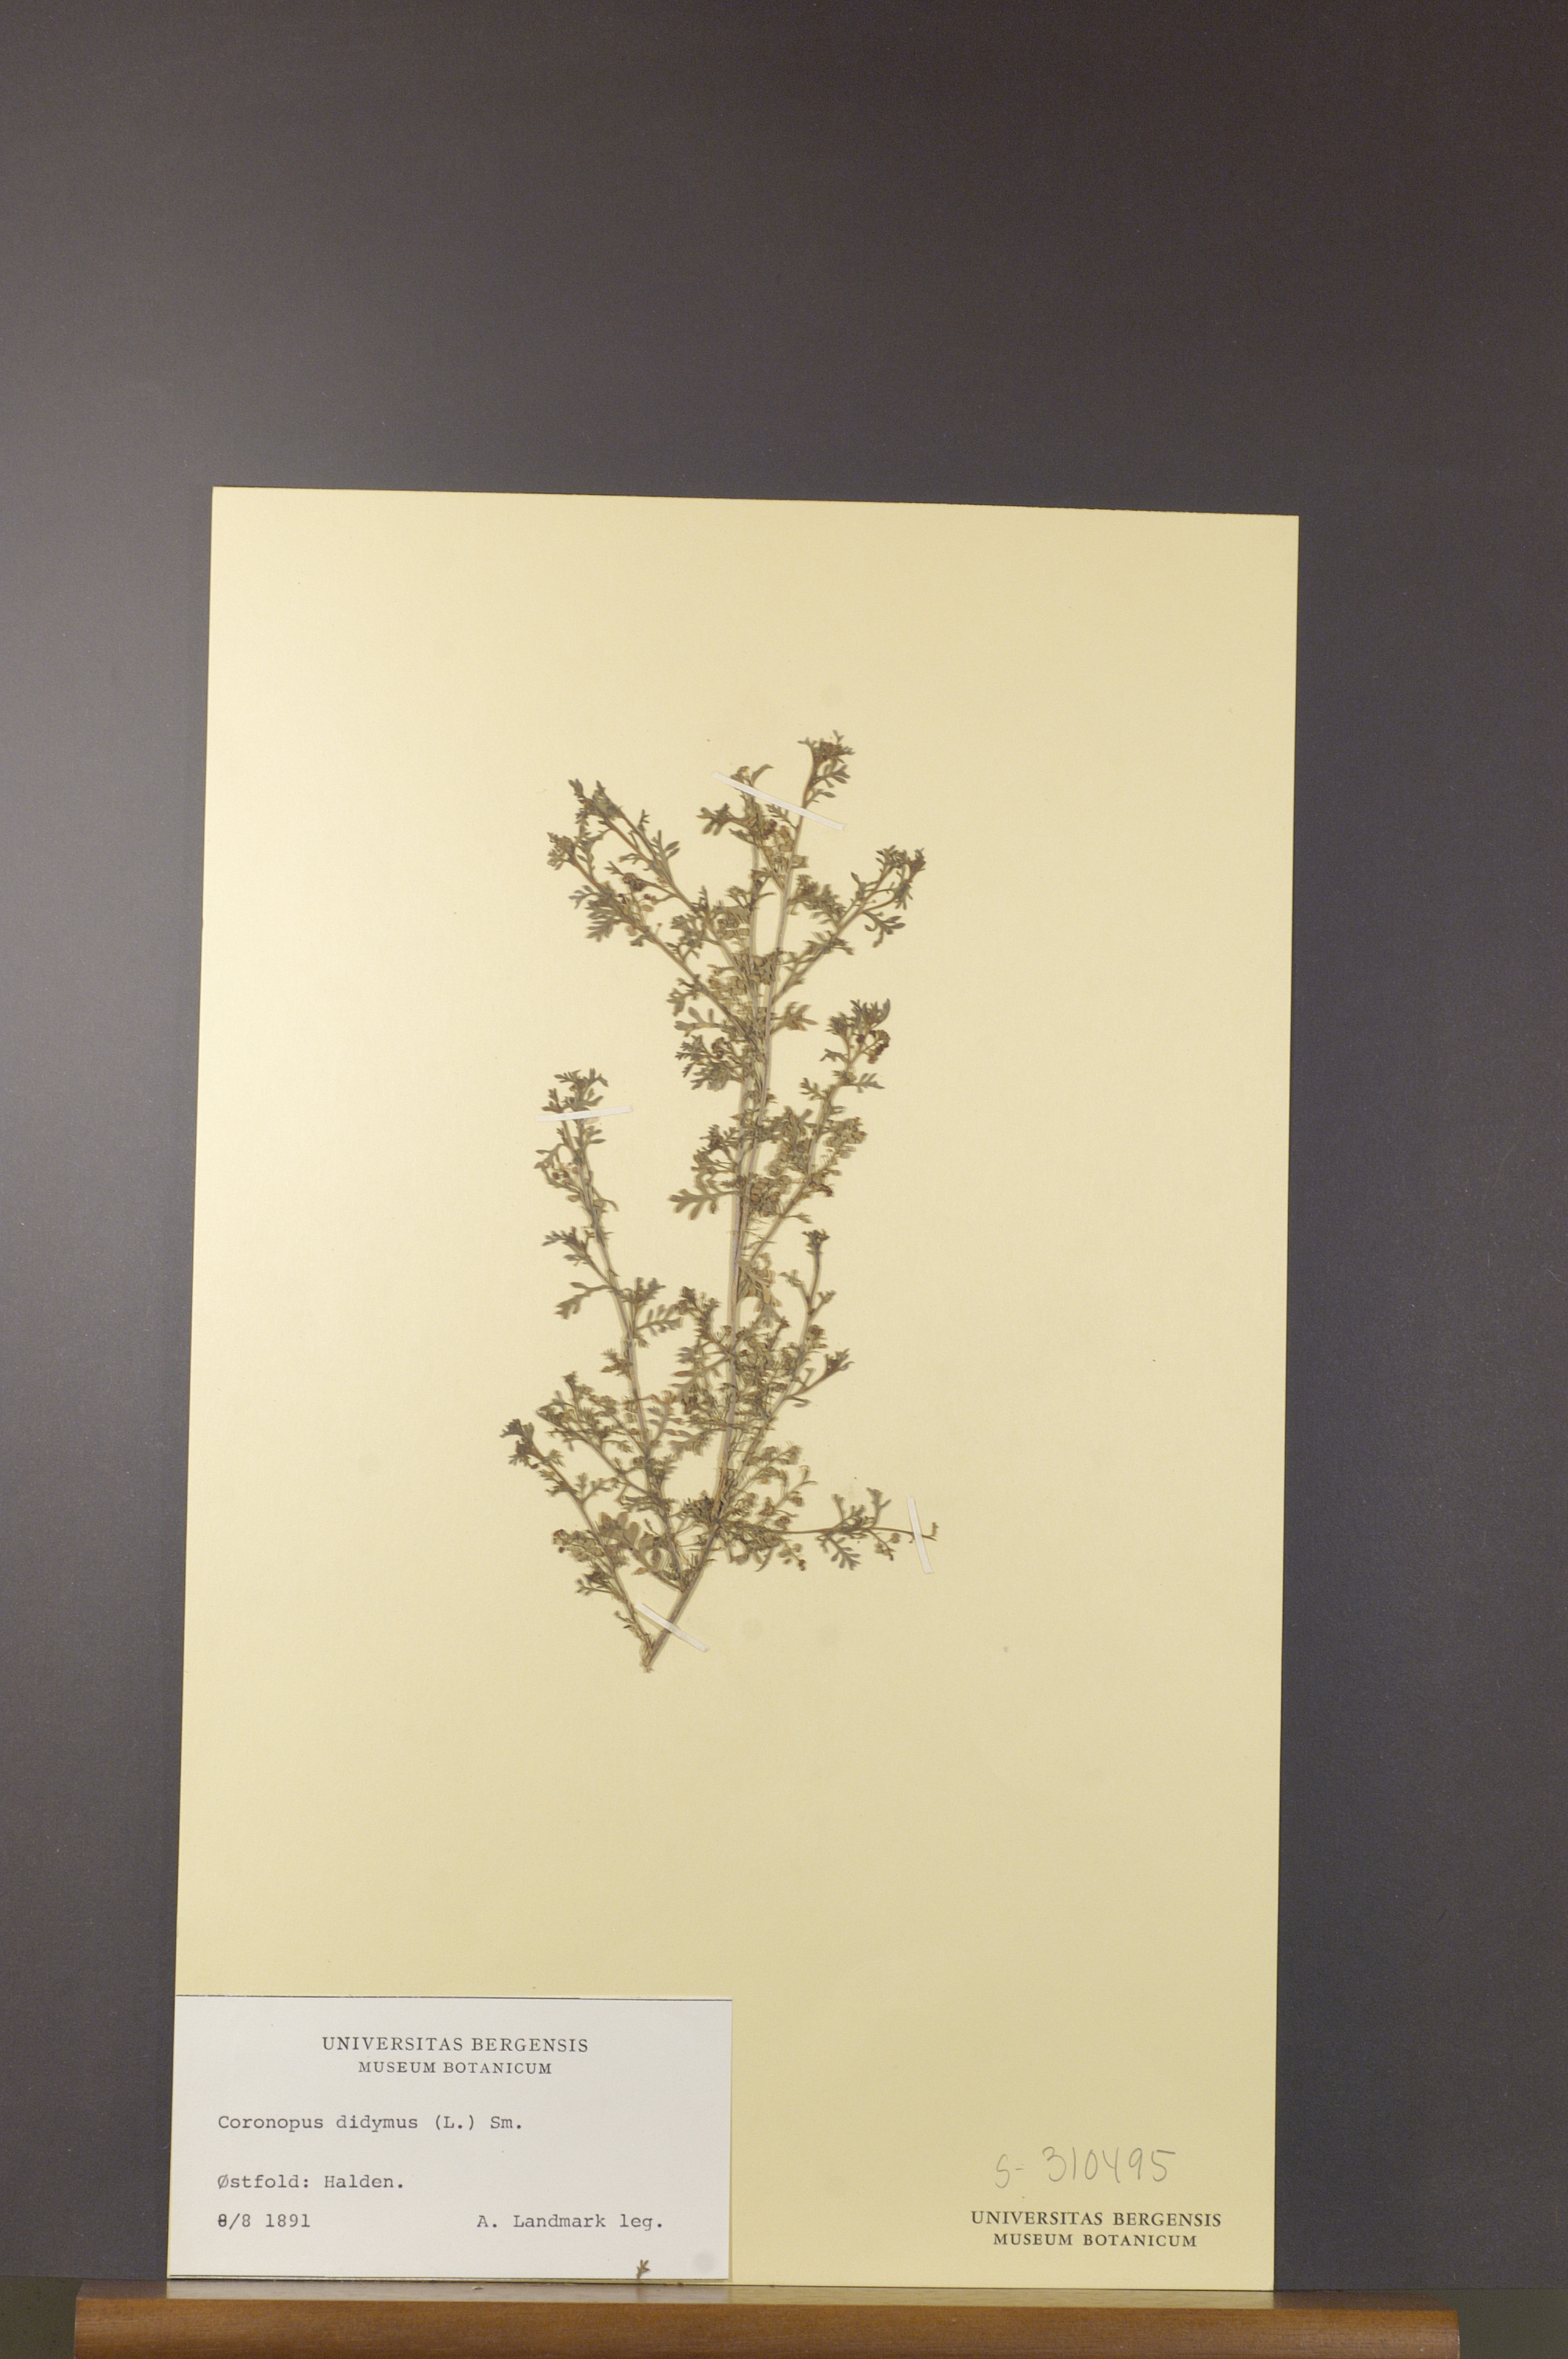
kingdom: Plantae
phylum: Tracheophyta
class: Magnoliopsida
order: Brassicales
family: Brassicaceae
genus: Lepidium
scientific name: Lepidium didymum
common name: Lesser swinecress
